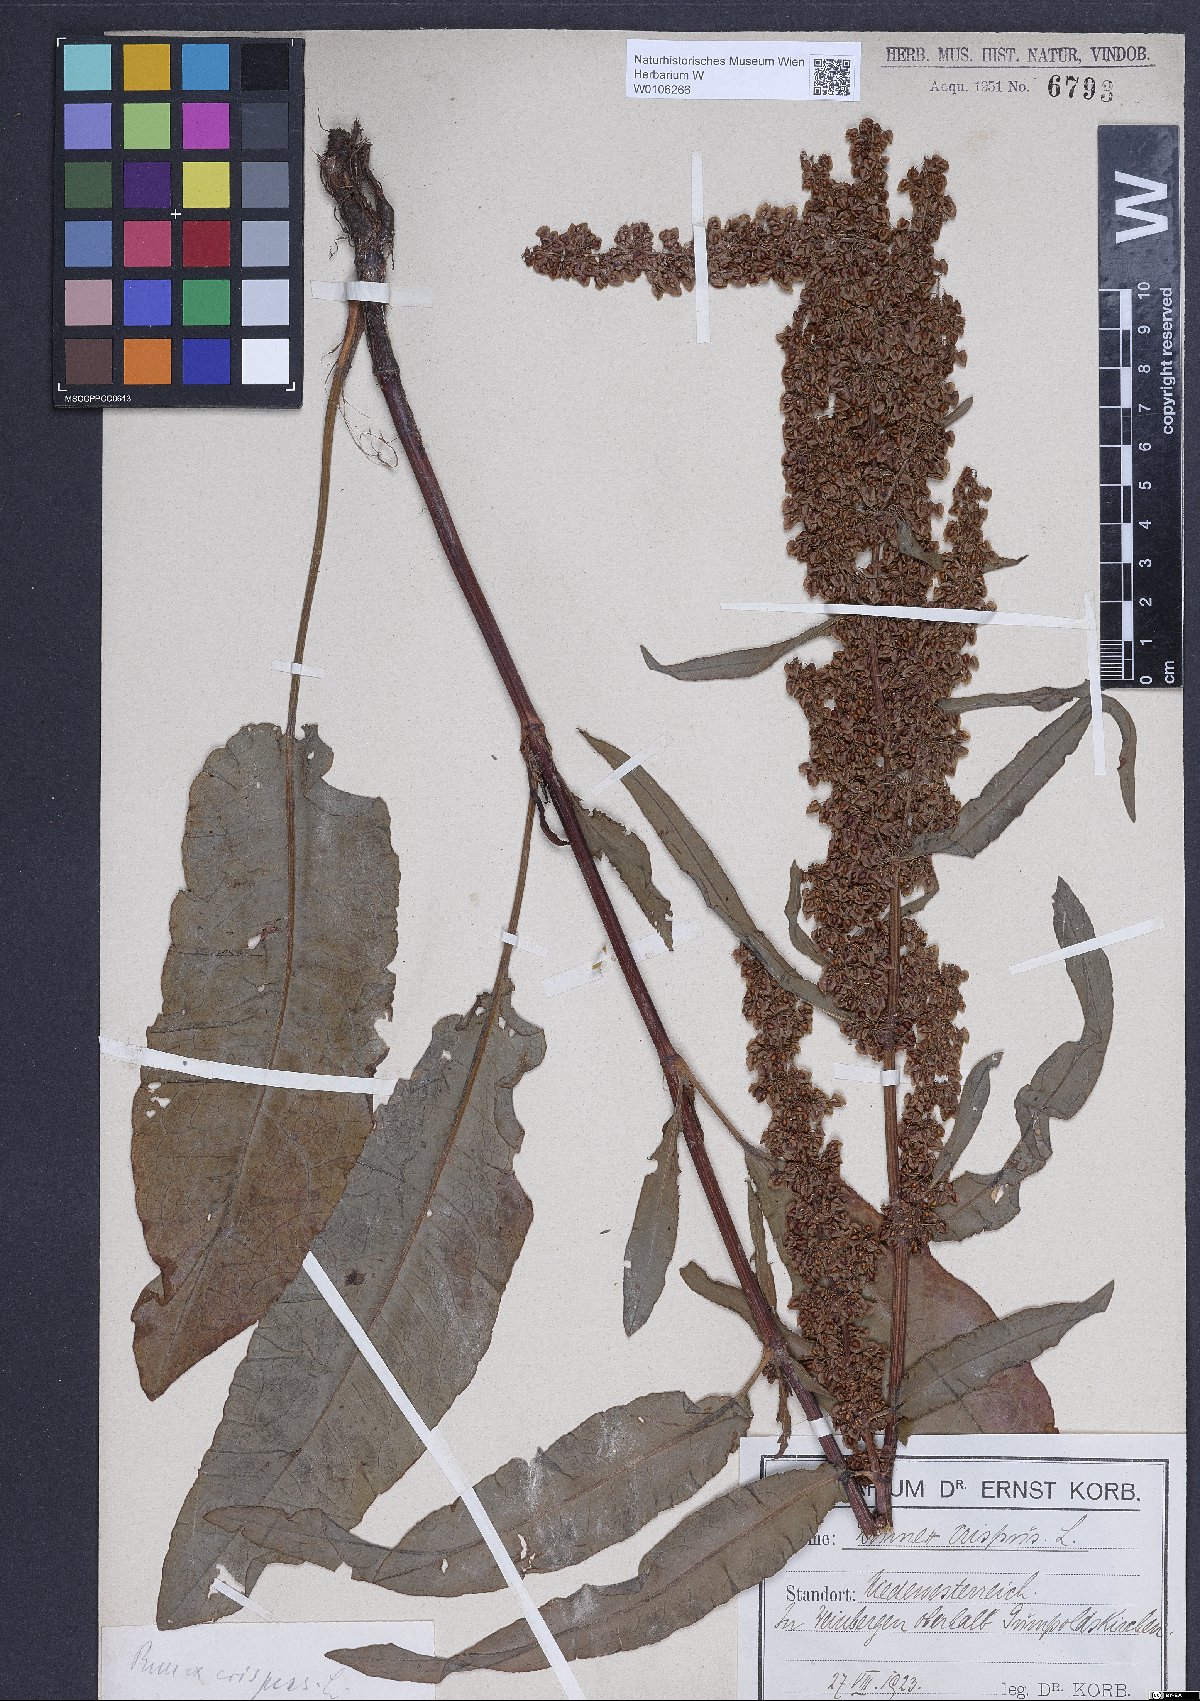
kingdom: Plantae
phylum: Tracheophyta
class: Magnoliopsida
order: Caryophyllales
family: Polygonaceae
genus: Rumex
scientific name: Rumex crispus
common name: Curled dock
